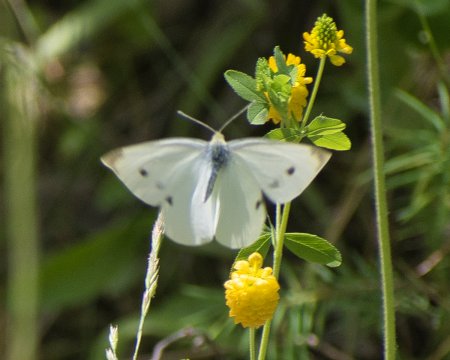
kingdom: Animalia
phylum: Arthropoda
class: Insecta
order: Lepidoptera
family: Pieridae
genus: Pieris
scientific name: Pieris rapae
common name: Cabbage White
